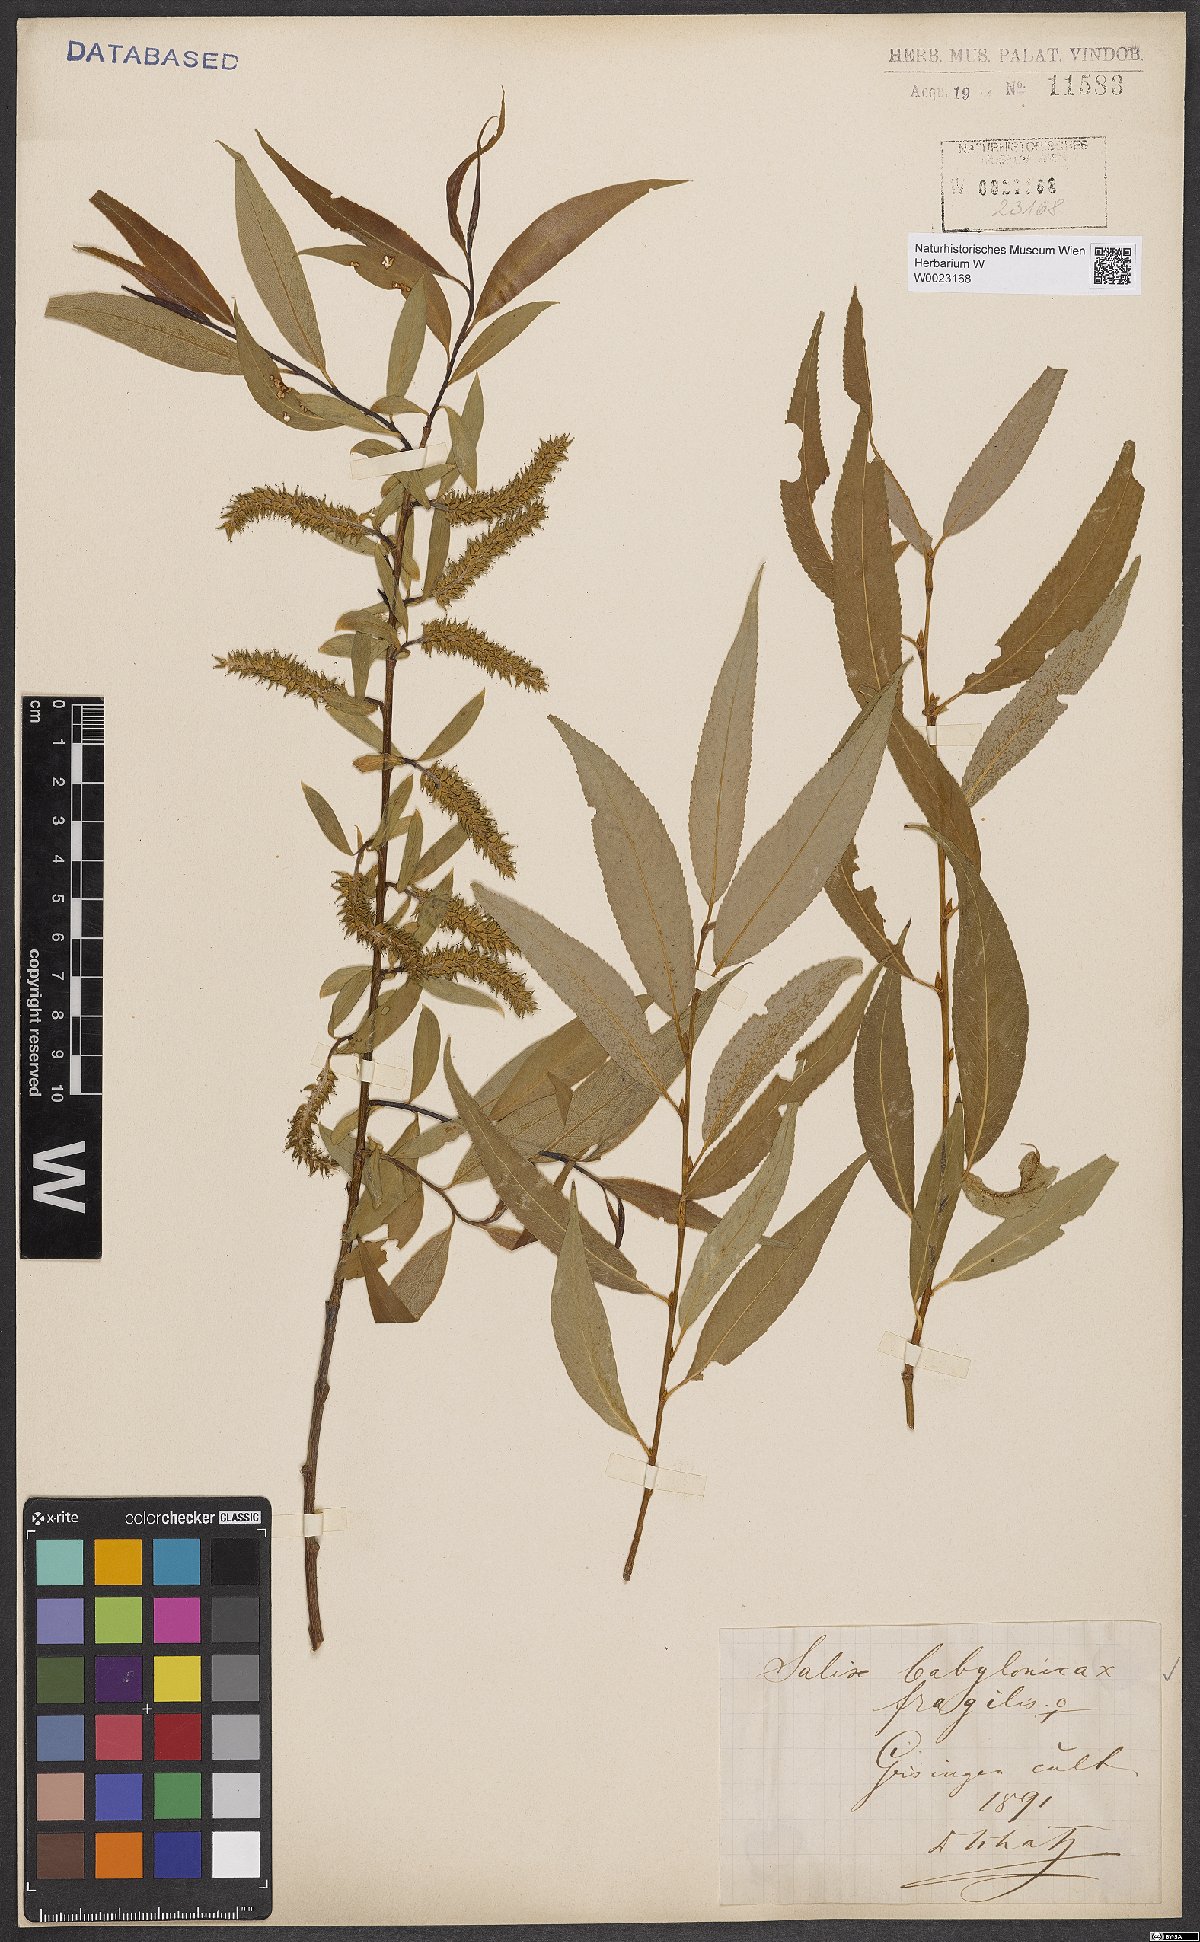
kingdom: Plantae
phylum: Tracheophyta
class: Magnoliopsida
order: Malpighiales
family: Salicaceae
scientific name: Salicaceae
